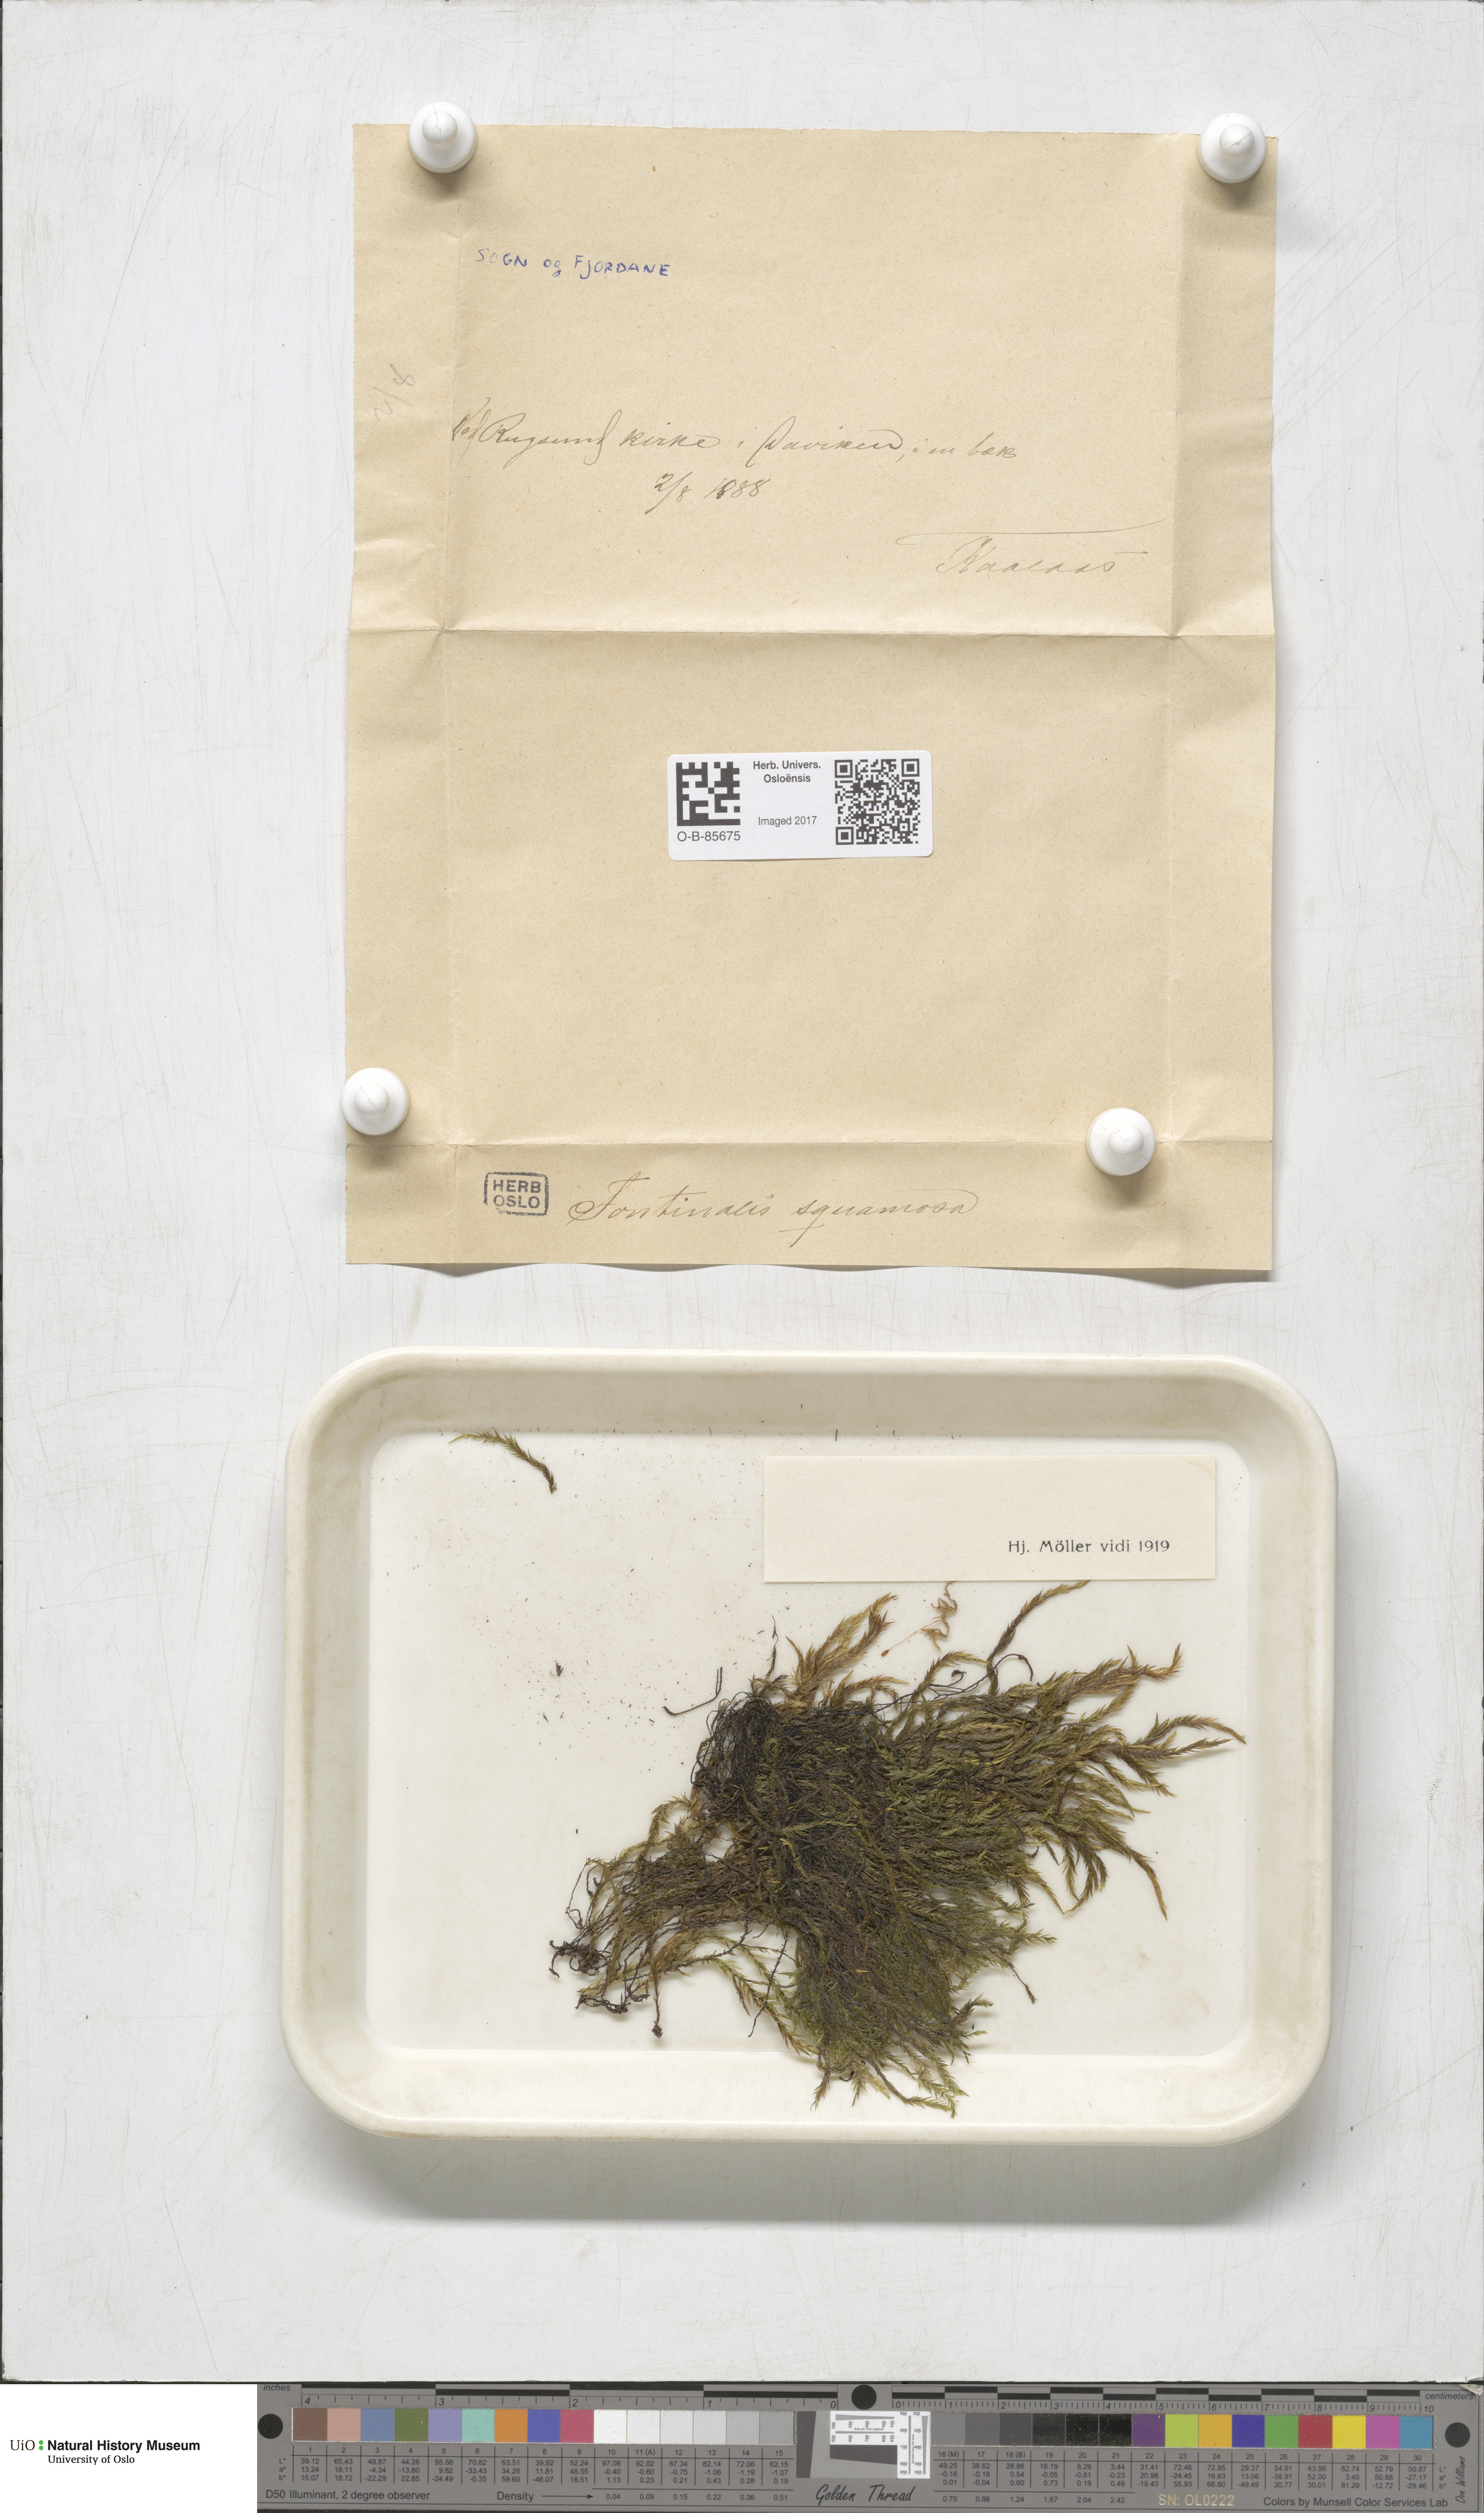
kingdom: Plantae
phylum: Bryophyta
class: Bryopsida
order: Hypnales
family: Fontinalaceae
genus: Fontinalis
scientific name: Fontinalis squamosa
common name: Alpine water-moss
